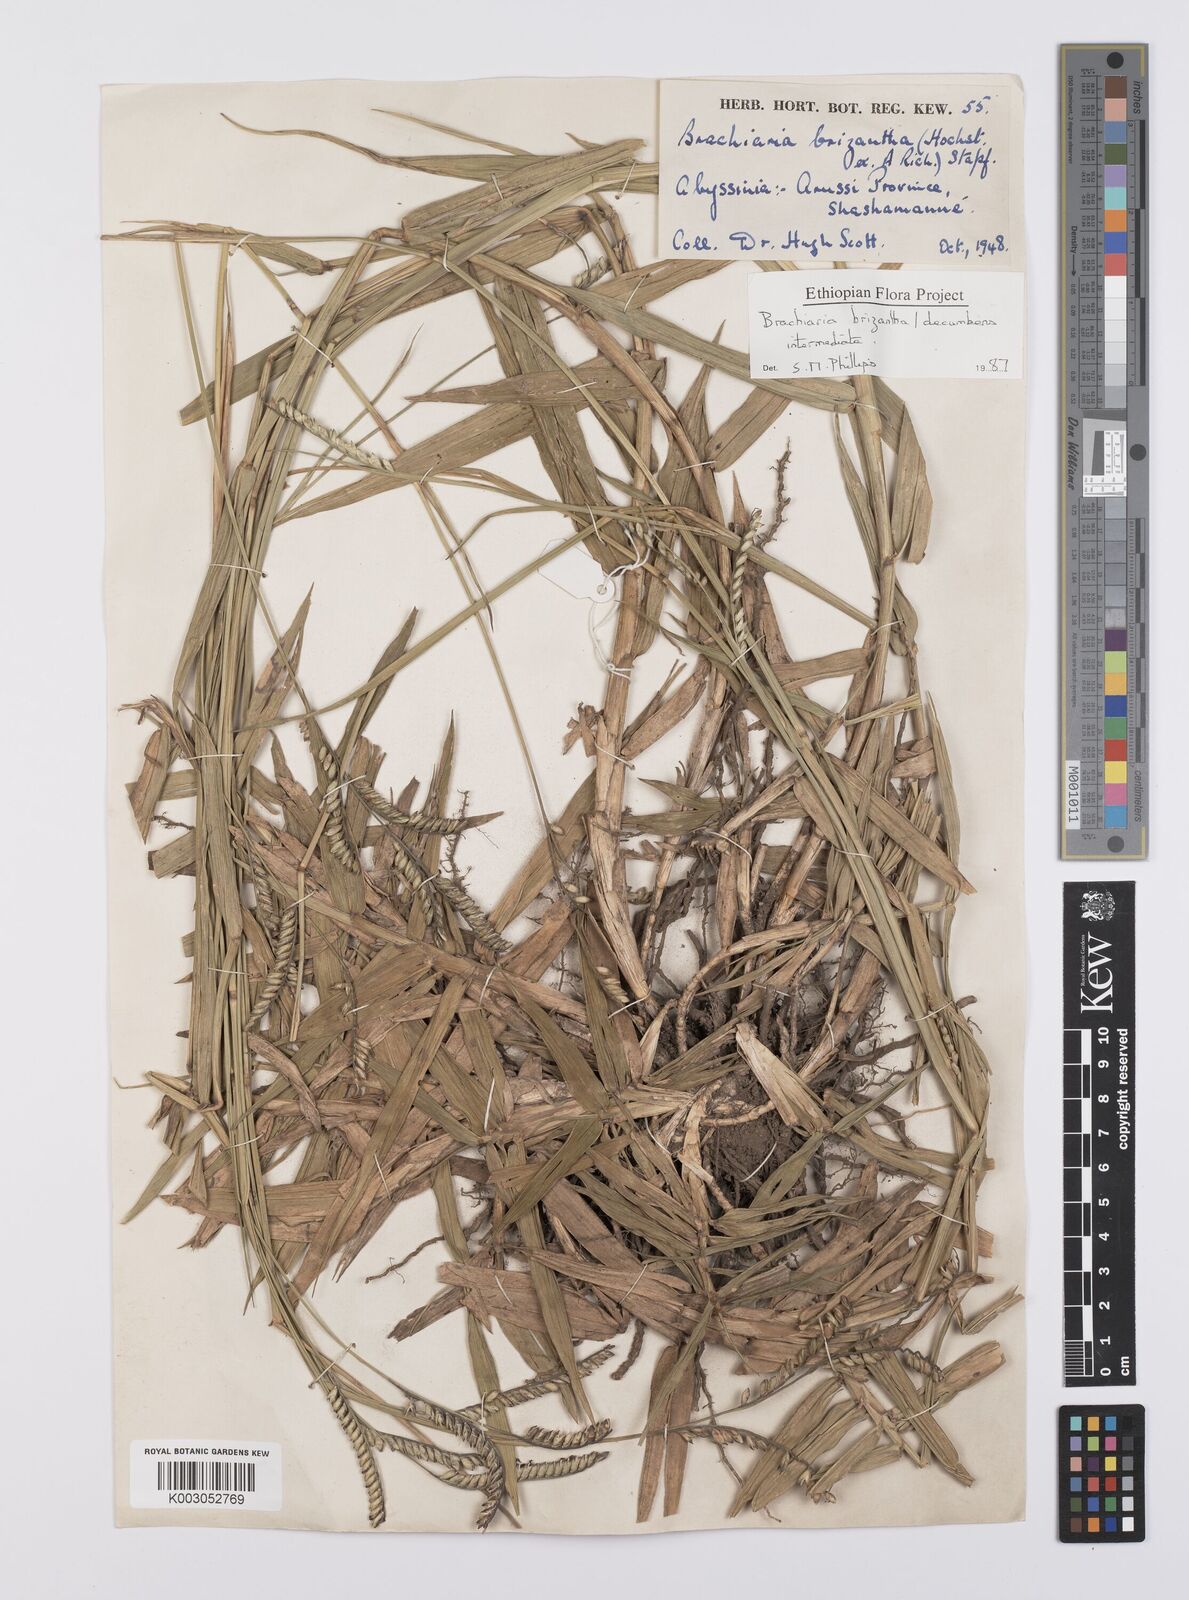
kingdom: Plantae
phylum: Tracheophyta
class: Liliopsida
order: Poales
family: Poaceae
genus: Urochloa
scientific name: Urochloa brizantha
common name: Palisade signalgrass
